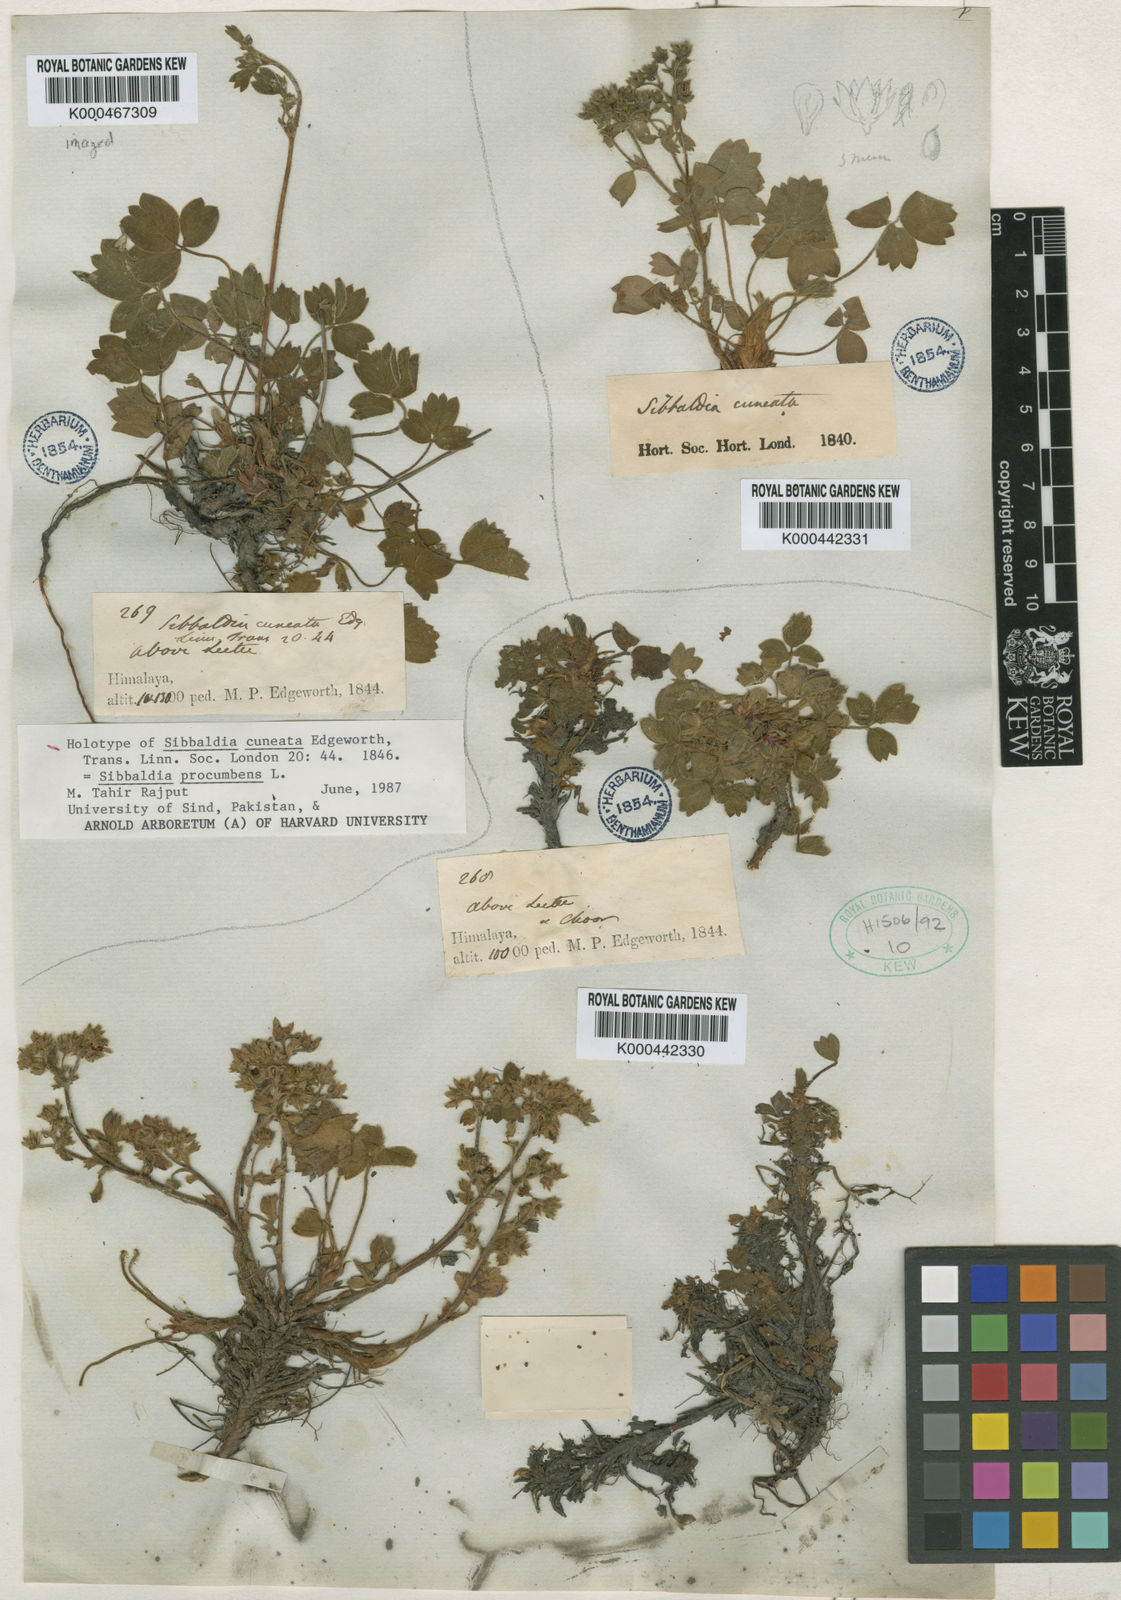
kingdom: Plantae
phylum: Tracheophyta
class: Magnoliopsida
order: Rosales
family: Rosaceae
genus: Sibbaldia
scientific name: Sibbaldia parviflora
